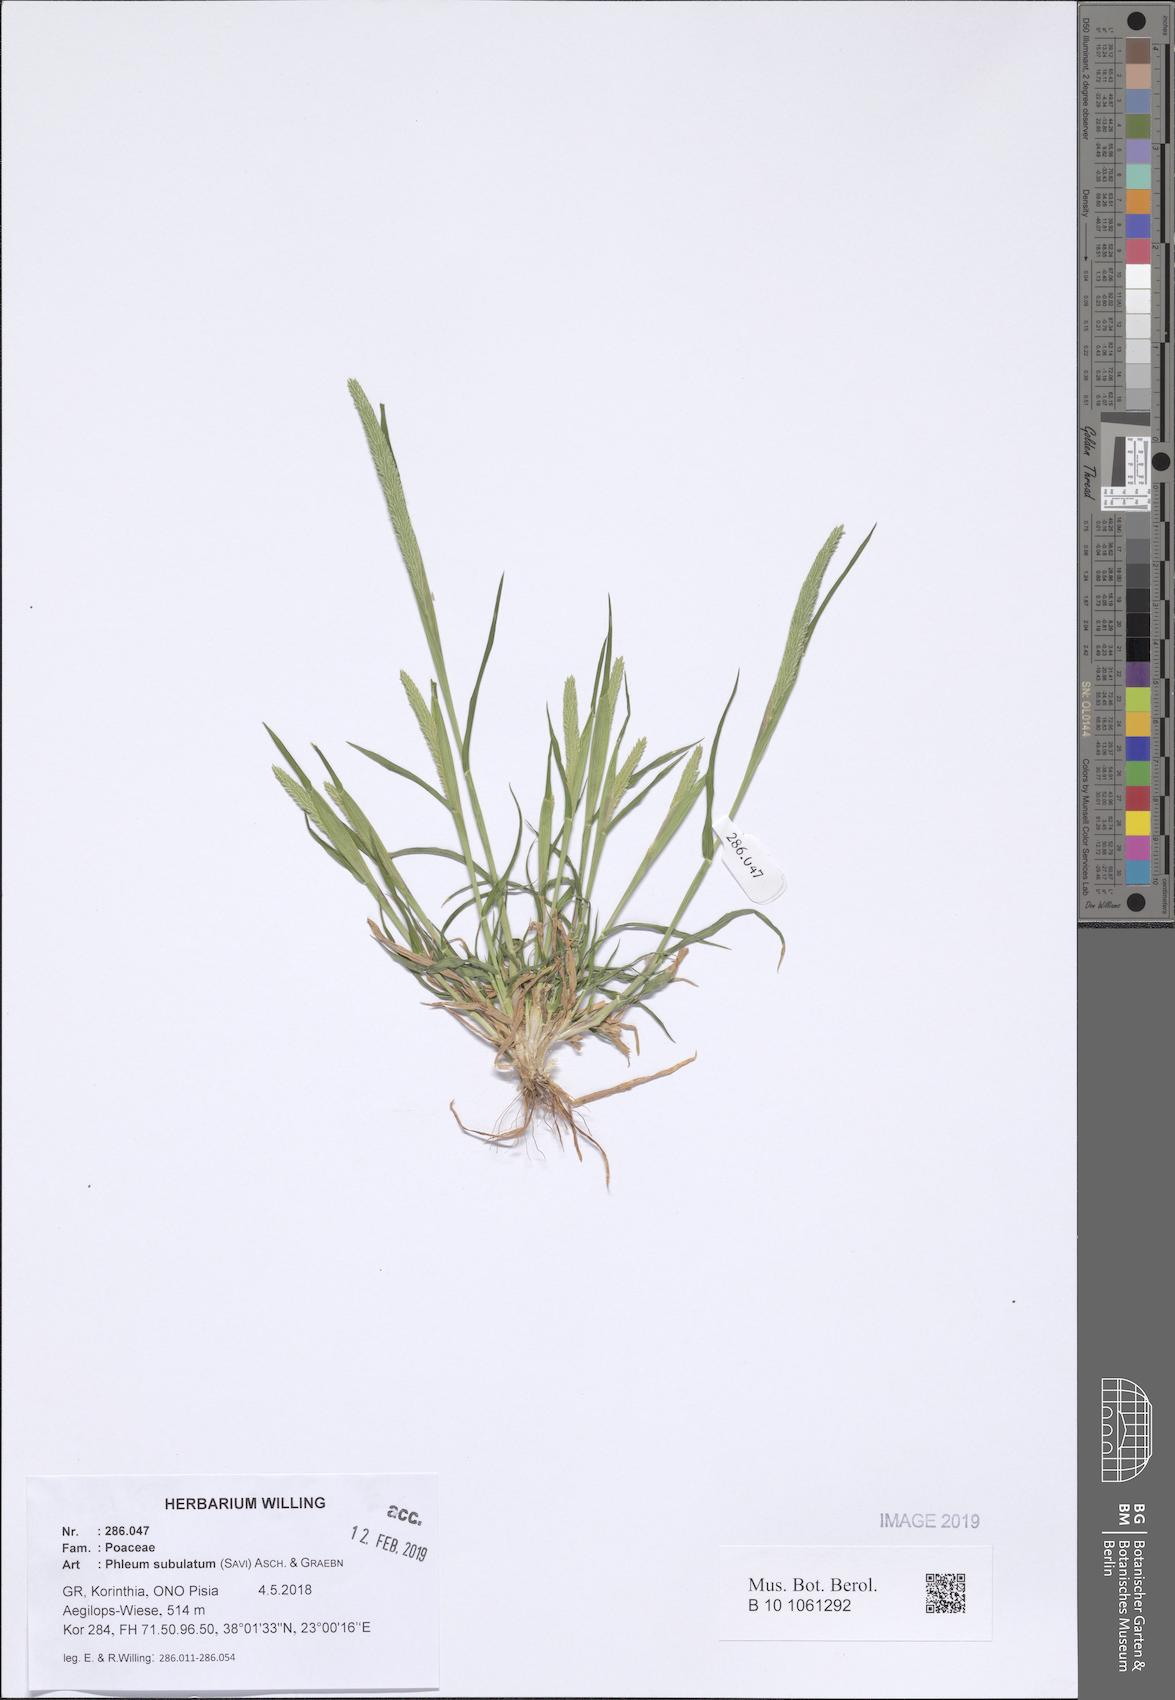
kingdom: Plantae
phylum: Tracheophyta
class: Liliopsida
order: Poales
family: Poaceae
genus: Phleum
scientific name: Phleum subulatum
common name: Italian timothy
